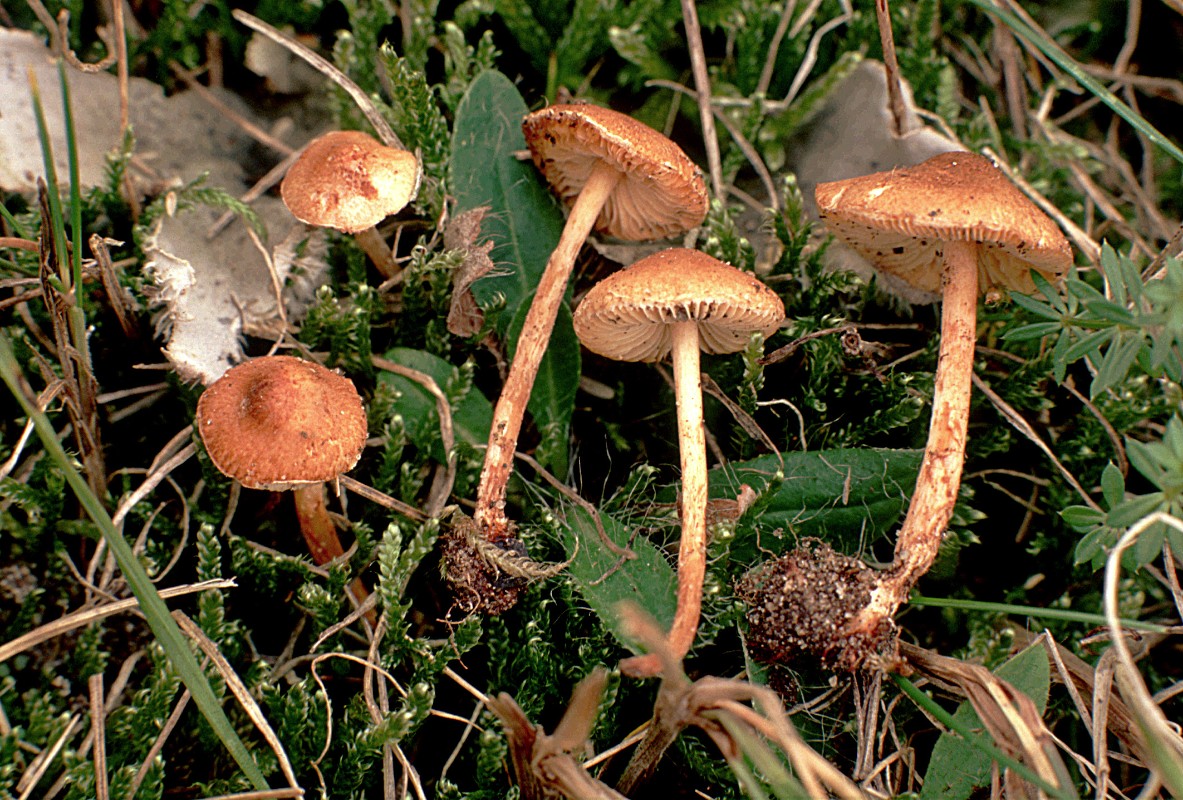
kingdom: Fungi
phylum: Basidiomycota
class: Agaricomycetes
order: Agaricales
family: Agaricaceae
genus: Lepiota
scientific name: Lepiota castanea
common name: ræverød parasolhat
